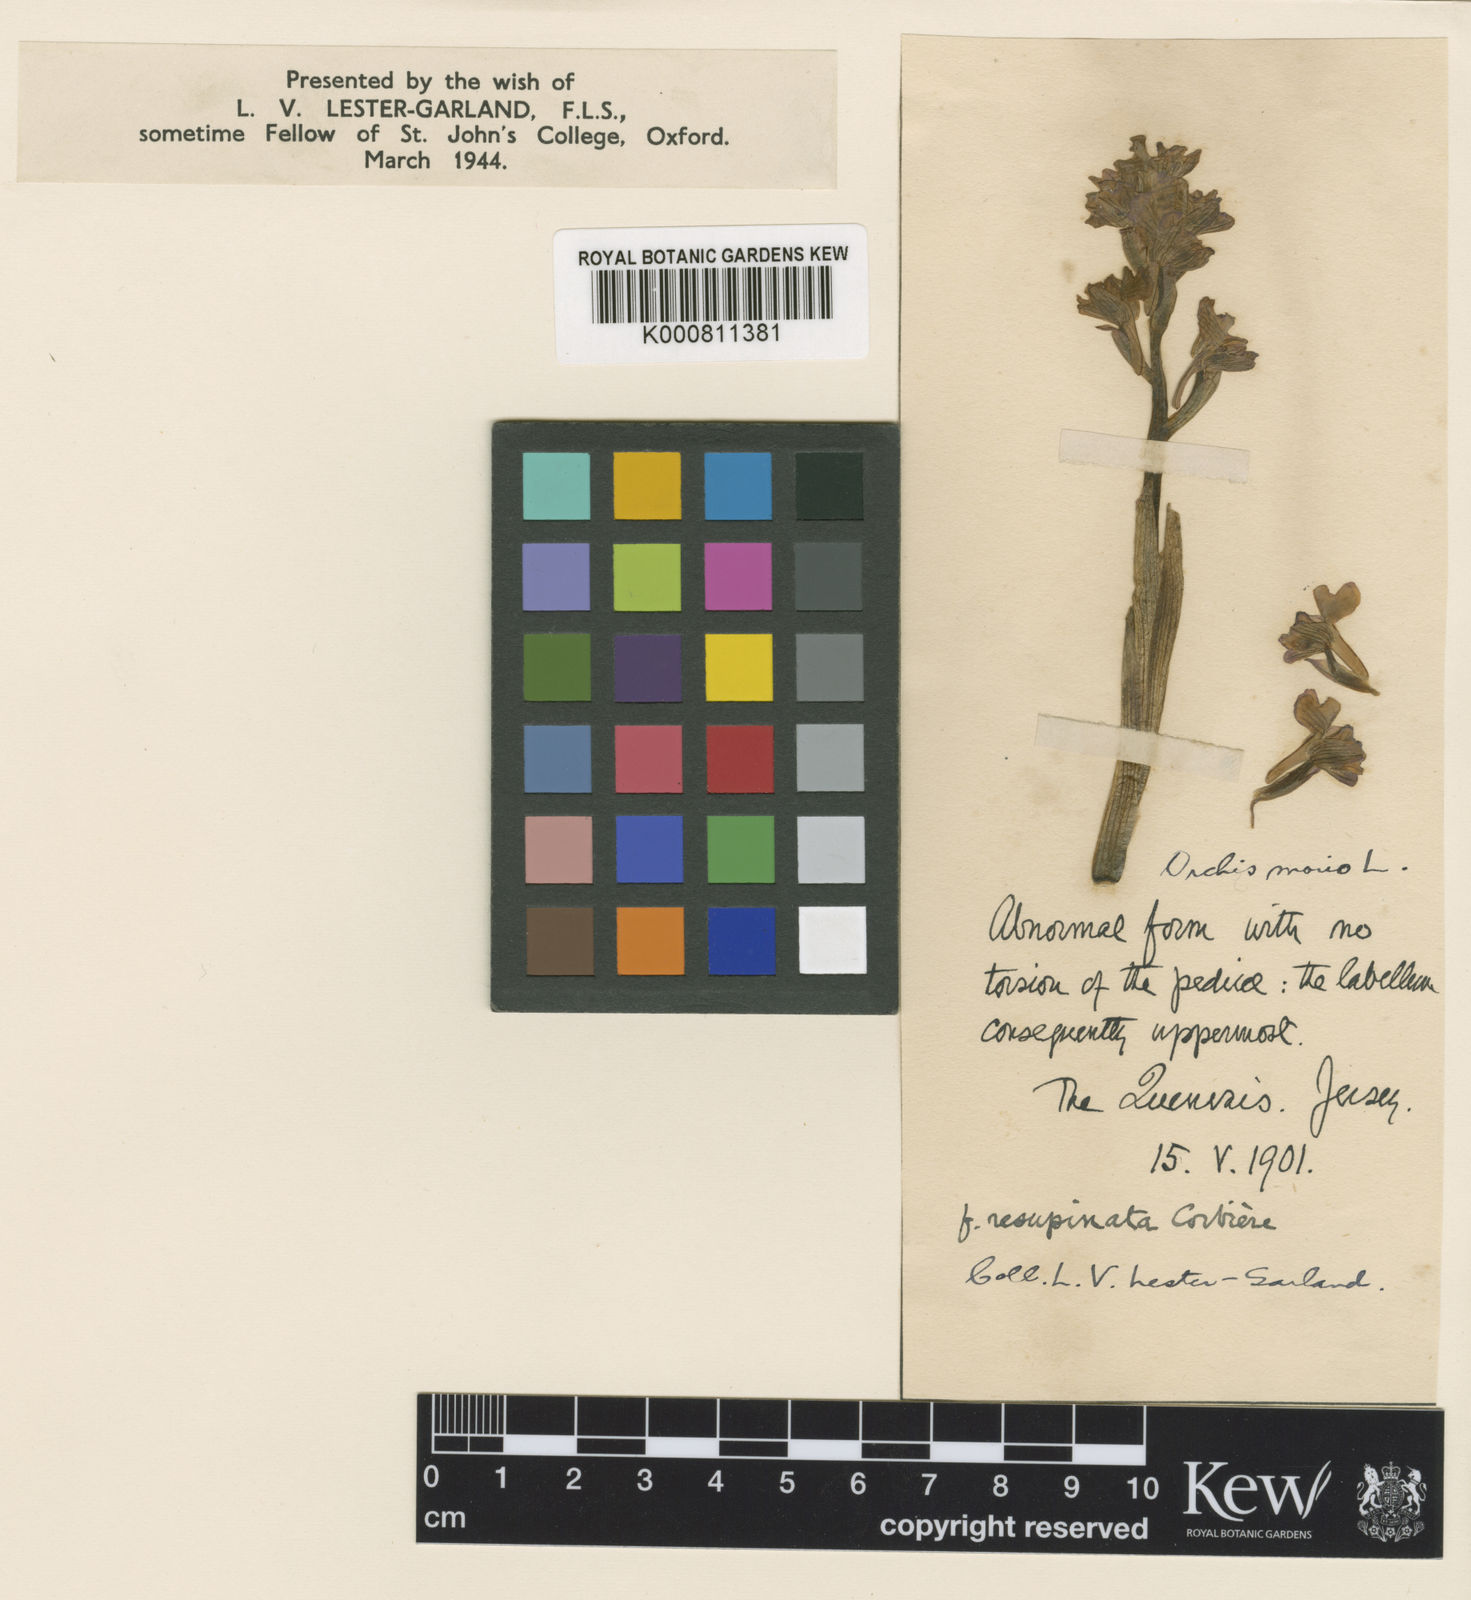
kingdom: Plantae
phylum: Tracheophyta
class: Liliopsida
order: Asparagales
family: Orchidaceae
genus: Anacamptis
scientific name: Anacamptis morio
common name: Green-winged orchid
